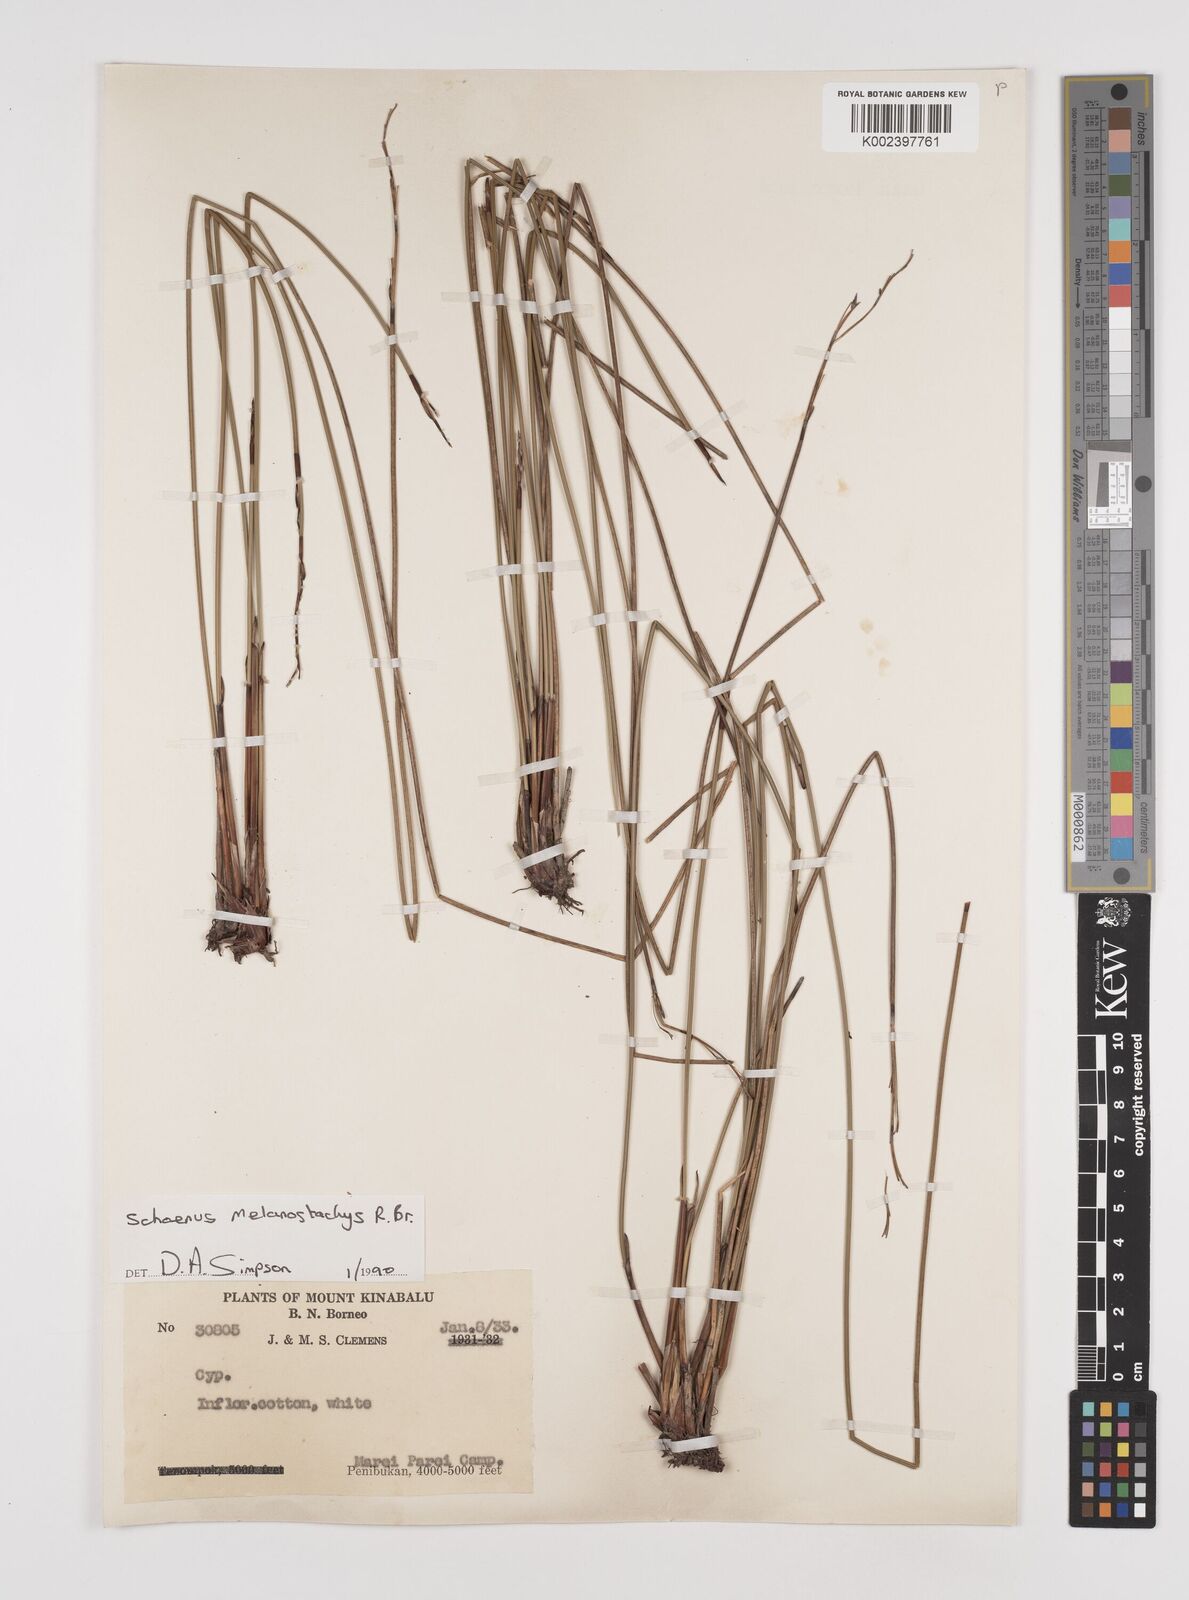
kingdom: Plantae
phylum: Tracheophyta
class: Liliopsida
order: Poales
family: Cyperaceae
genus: Schoenus
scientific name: Schoenus melanostachys
